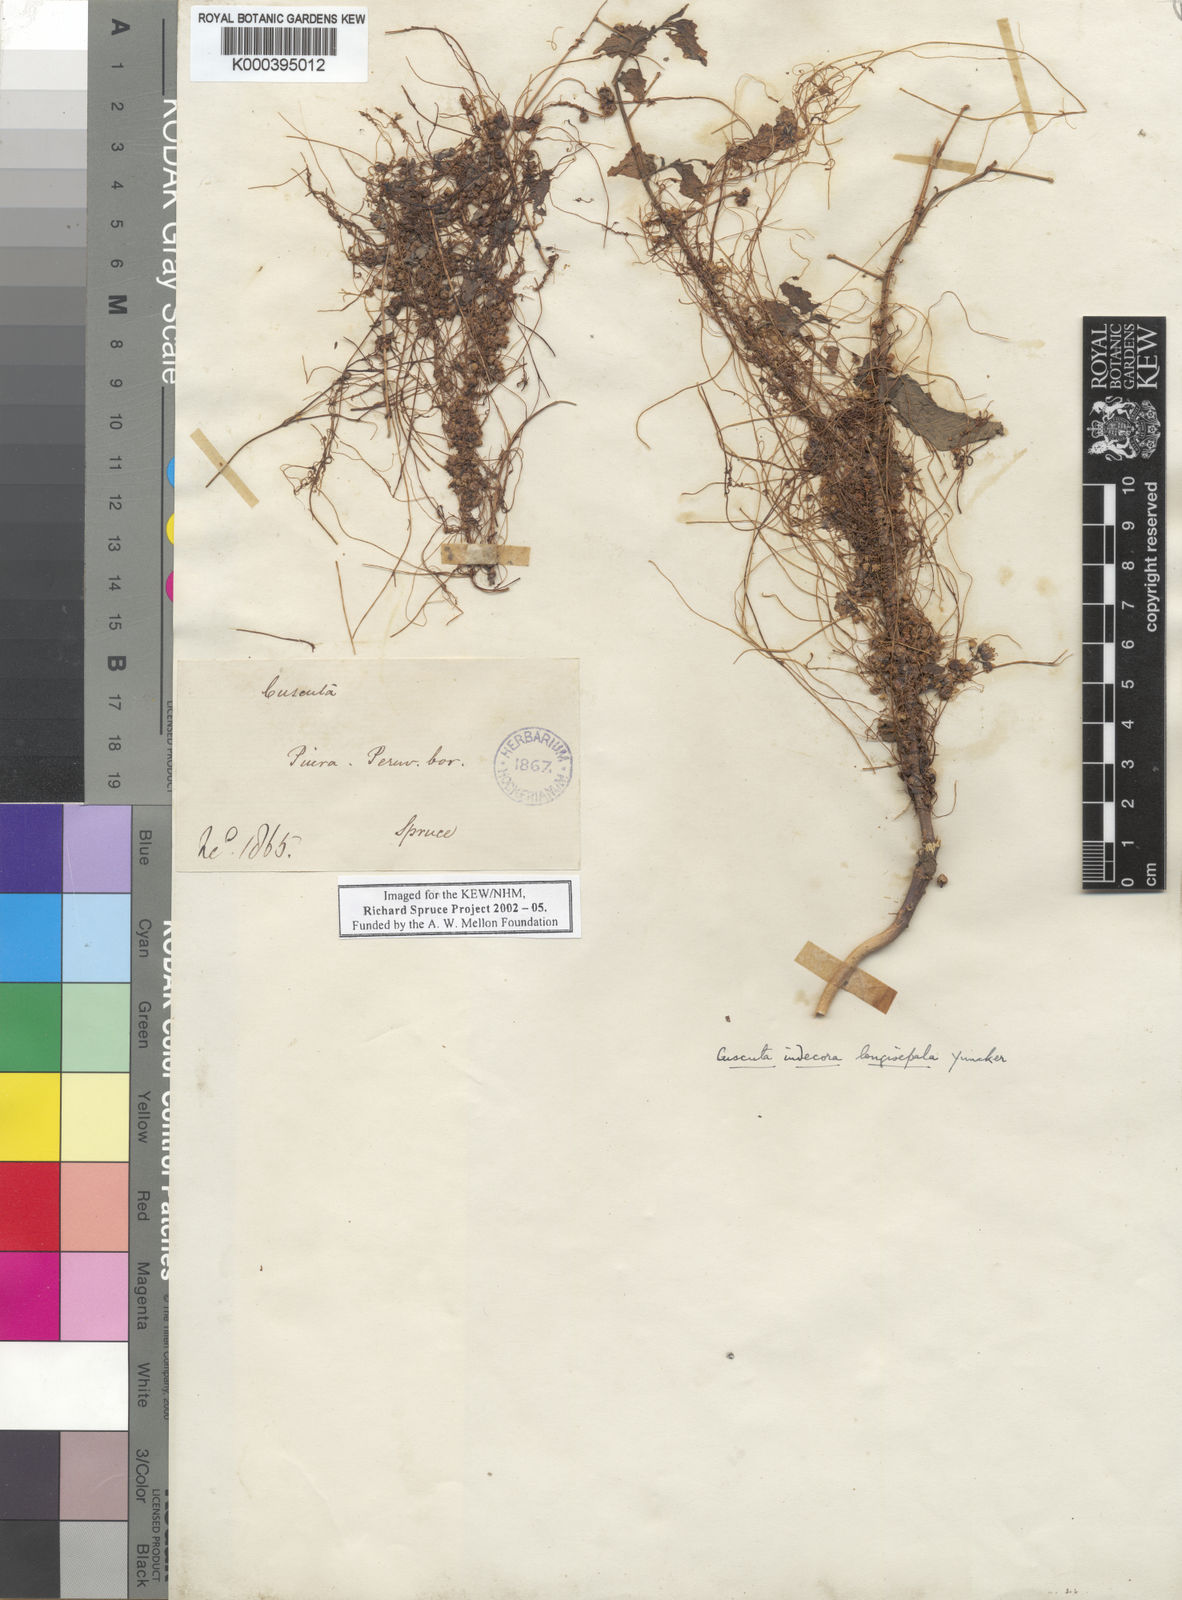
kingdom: Plantae
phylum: Tracheophyta
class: Magnoliopsida
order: Solanales
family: Convolvulaceae
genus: Cuscuta
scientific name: Cuscuta indecora
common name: Large-seed dodder
